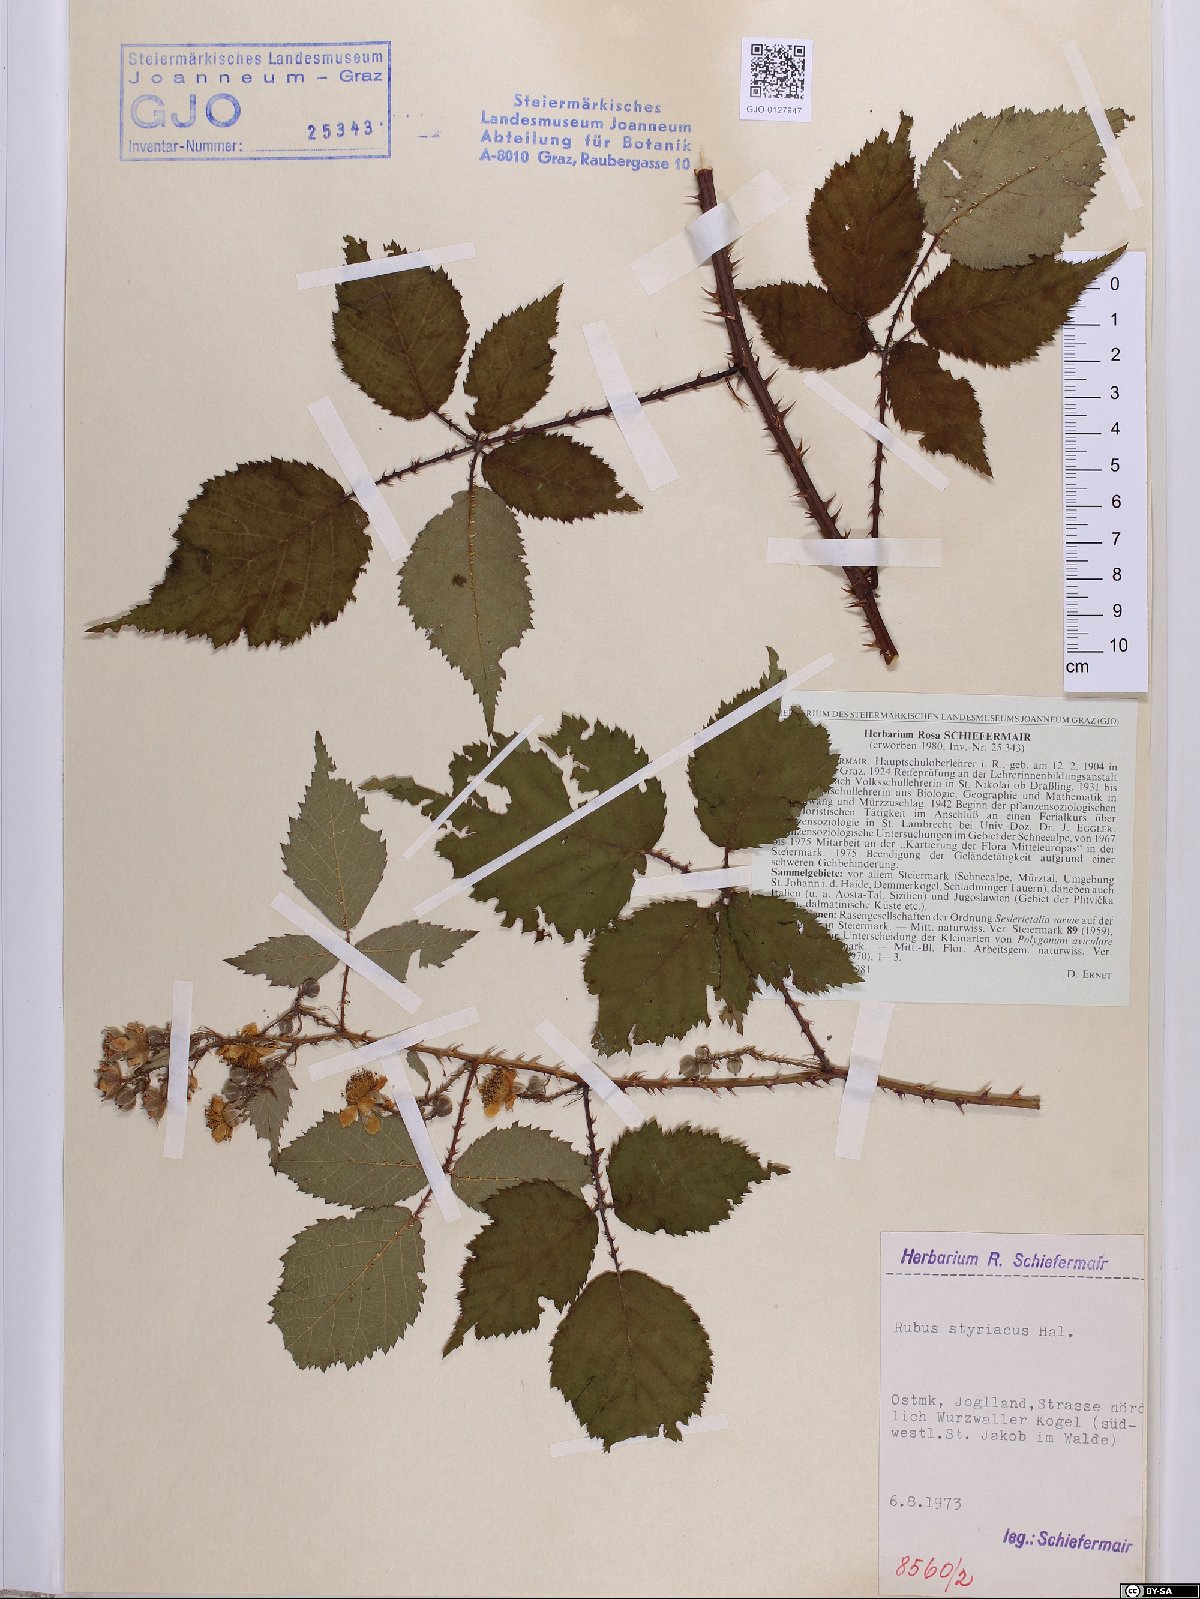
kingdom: Plantae
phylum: Tracheophyta
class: Magnoliopsida
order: Rosales
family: Rosaceae
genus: Rubus
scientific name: Rubus styriacus
